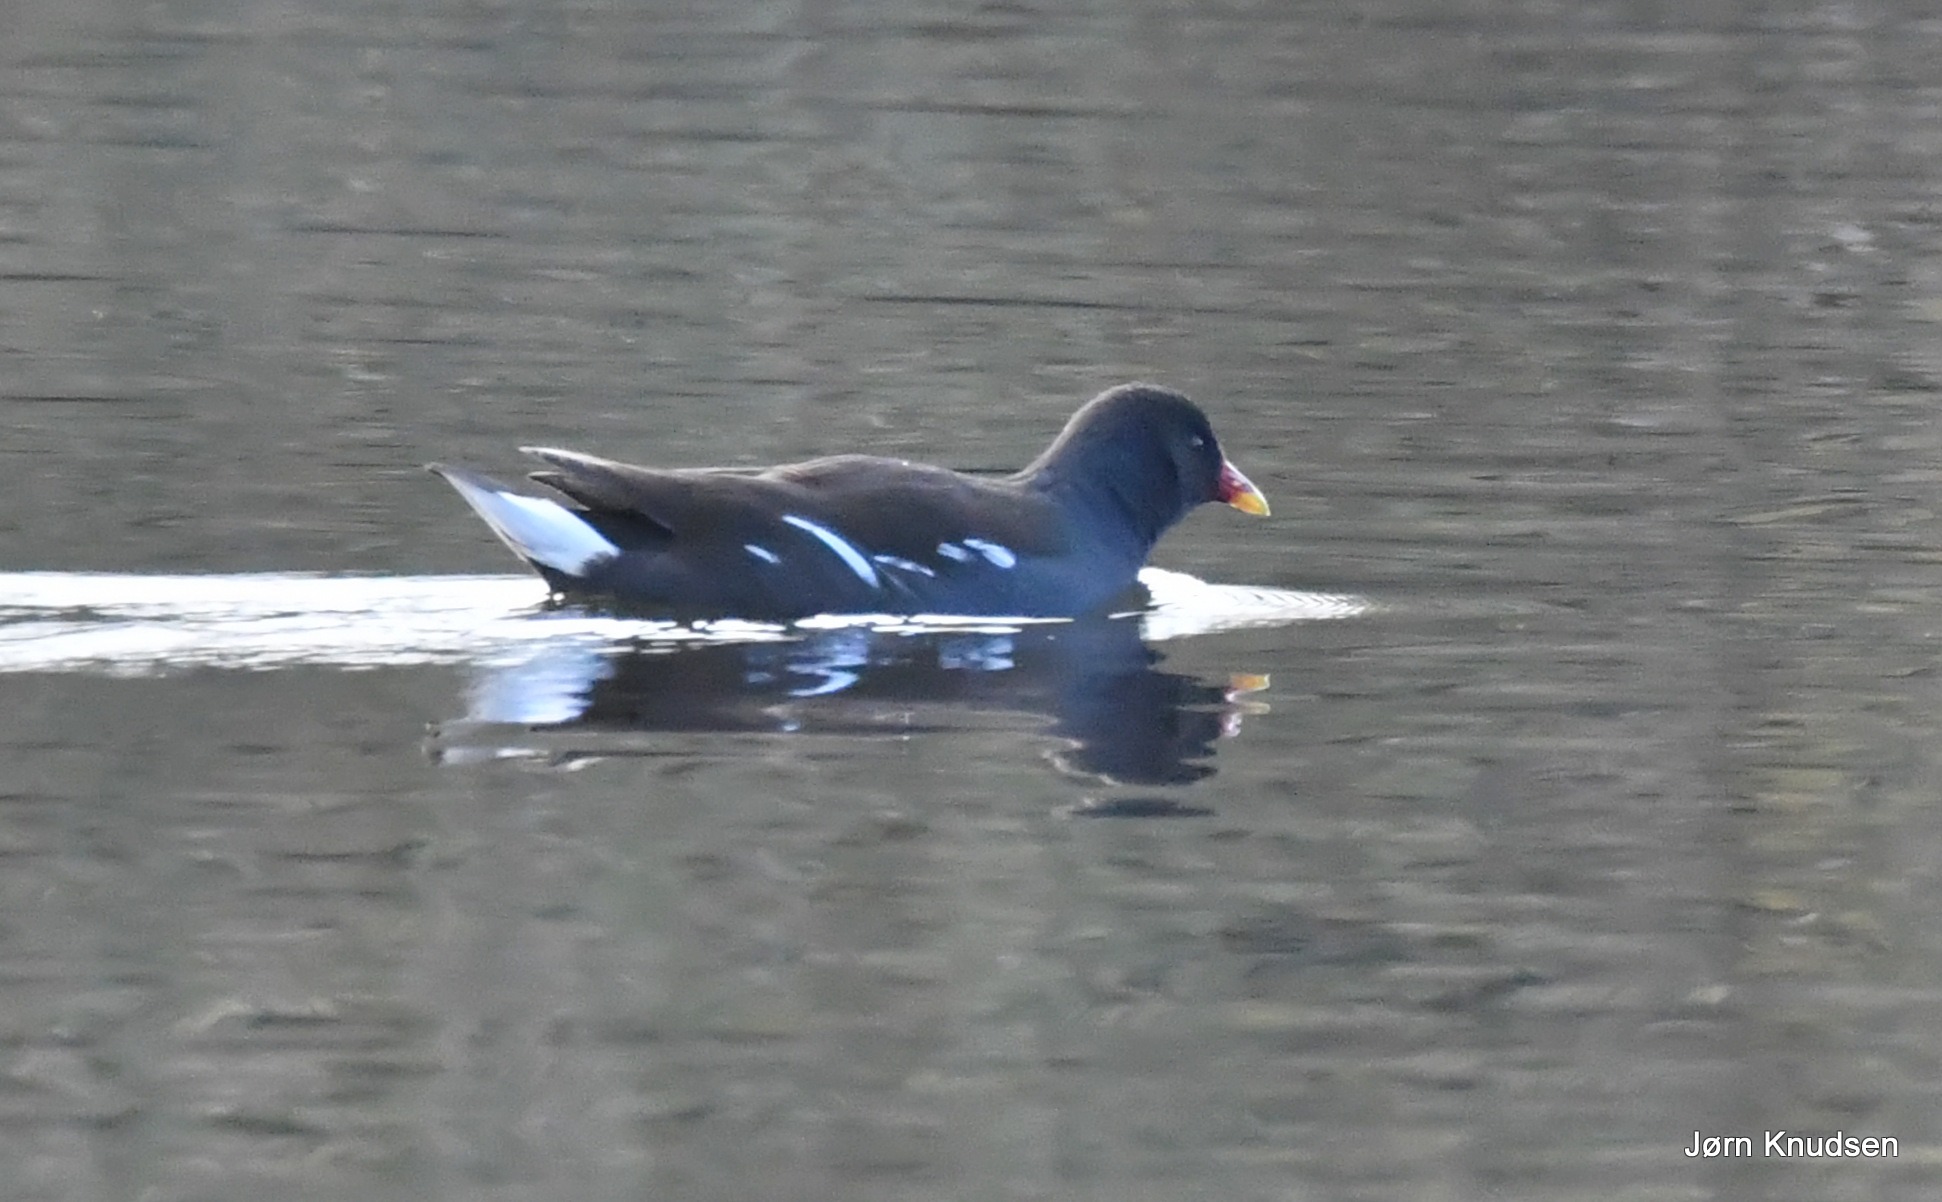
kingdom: Animalia
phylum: Chordata
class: Aves
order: Gruiformes
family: Rallidae
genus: Gallinula
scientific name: Gallinula chloropus
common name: Grønbenet rørhøne
